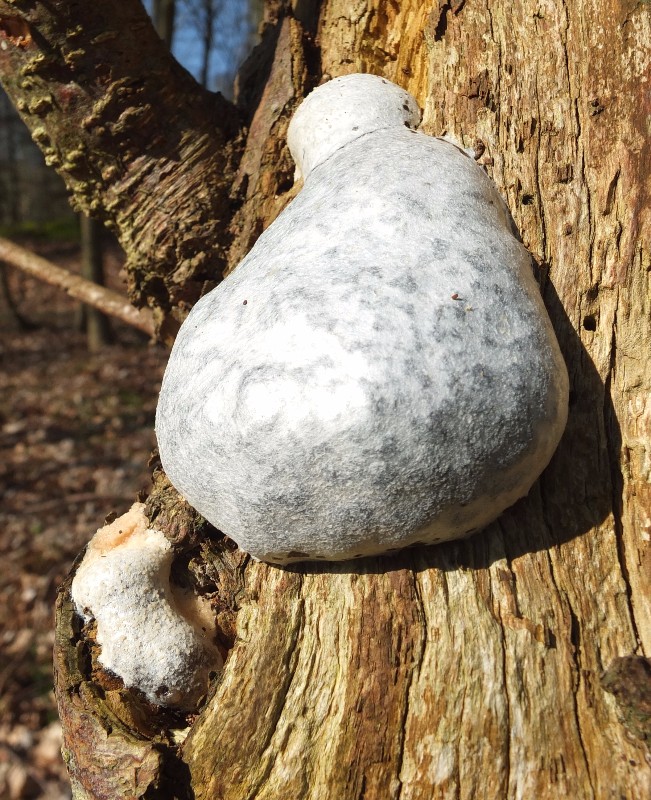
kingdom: Protozoa
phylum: Mycetozoa
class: Myxomycetes
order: Cribrariales
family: Tubiferaceae
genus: Reticularia
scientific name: Reticularia lycoperdon
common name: skinnende støvpude
